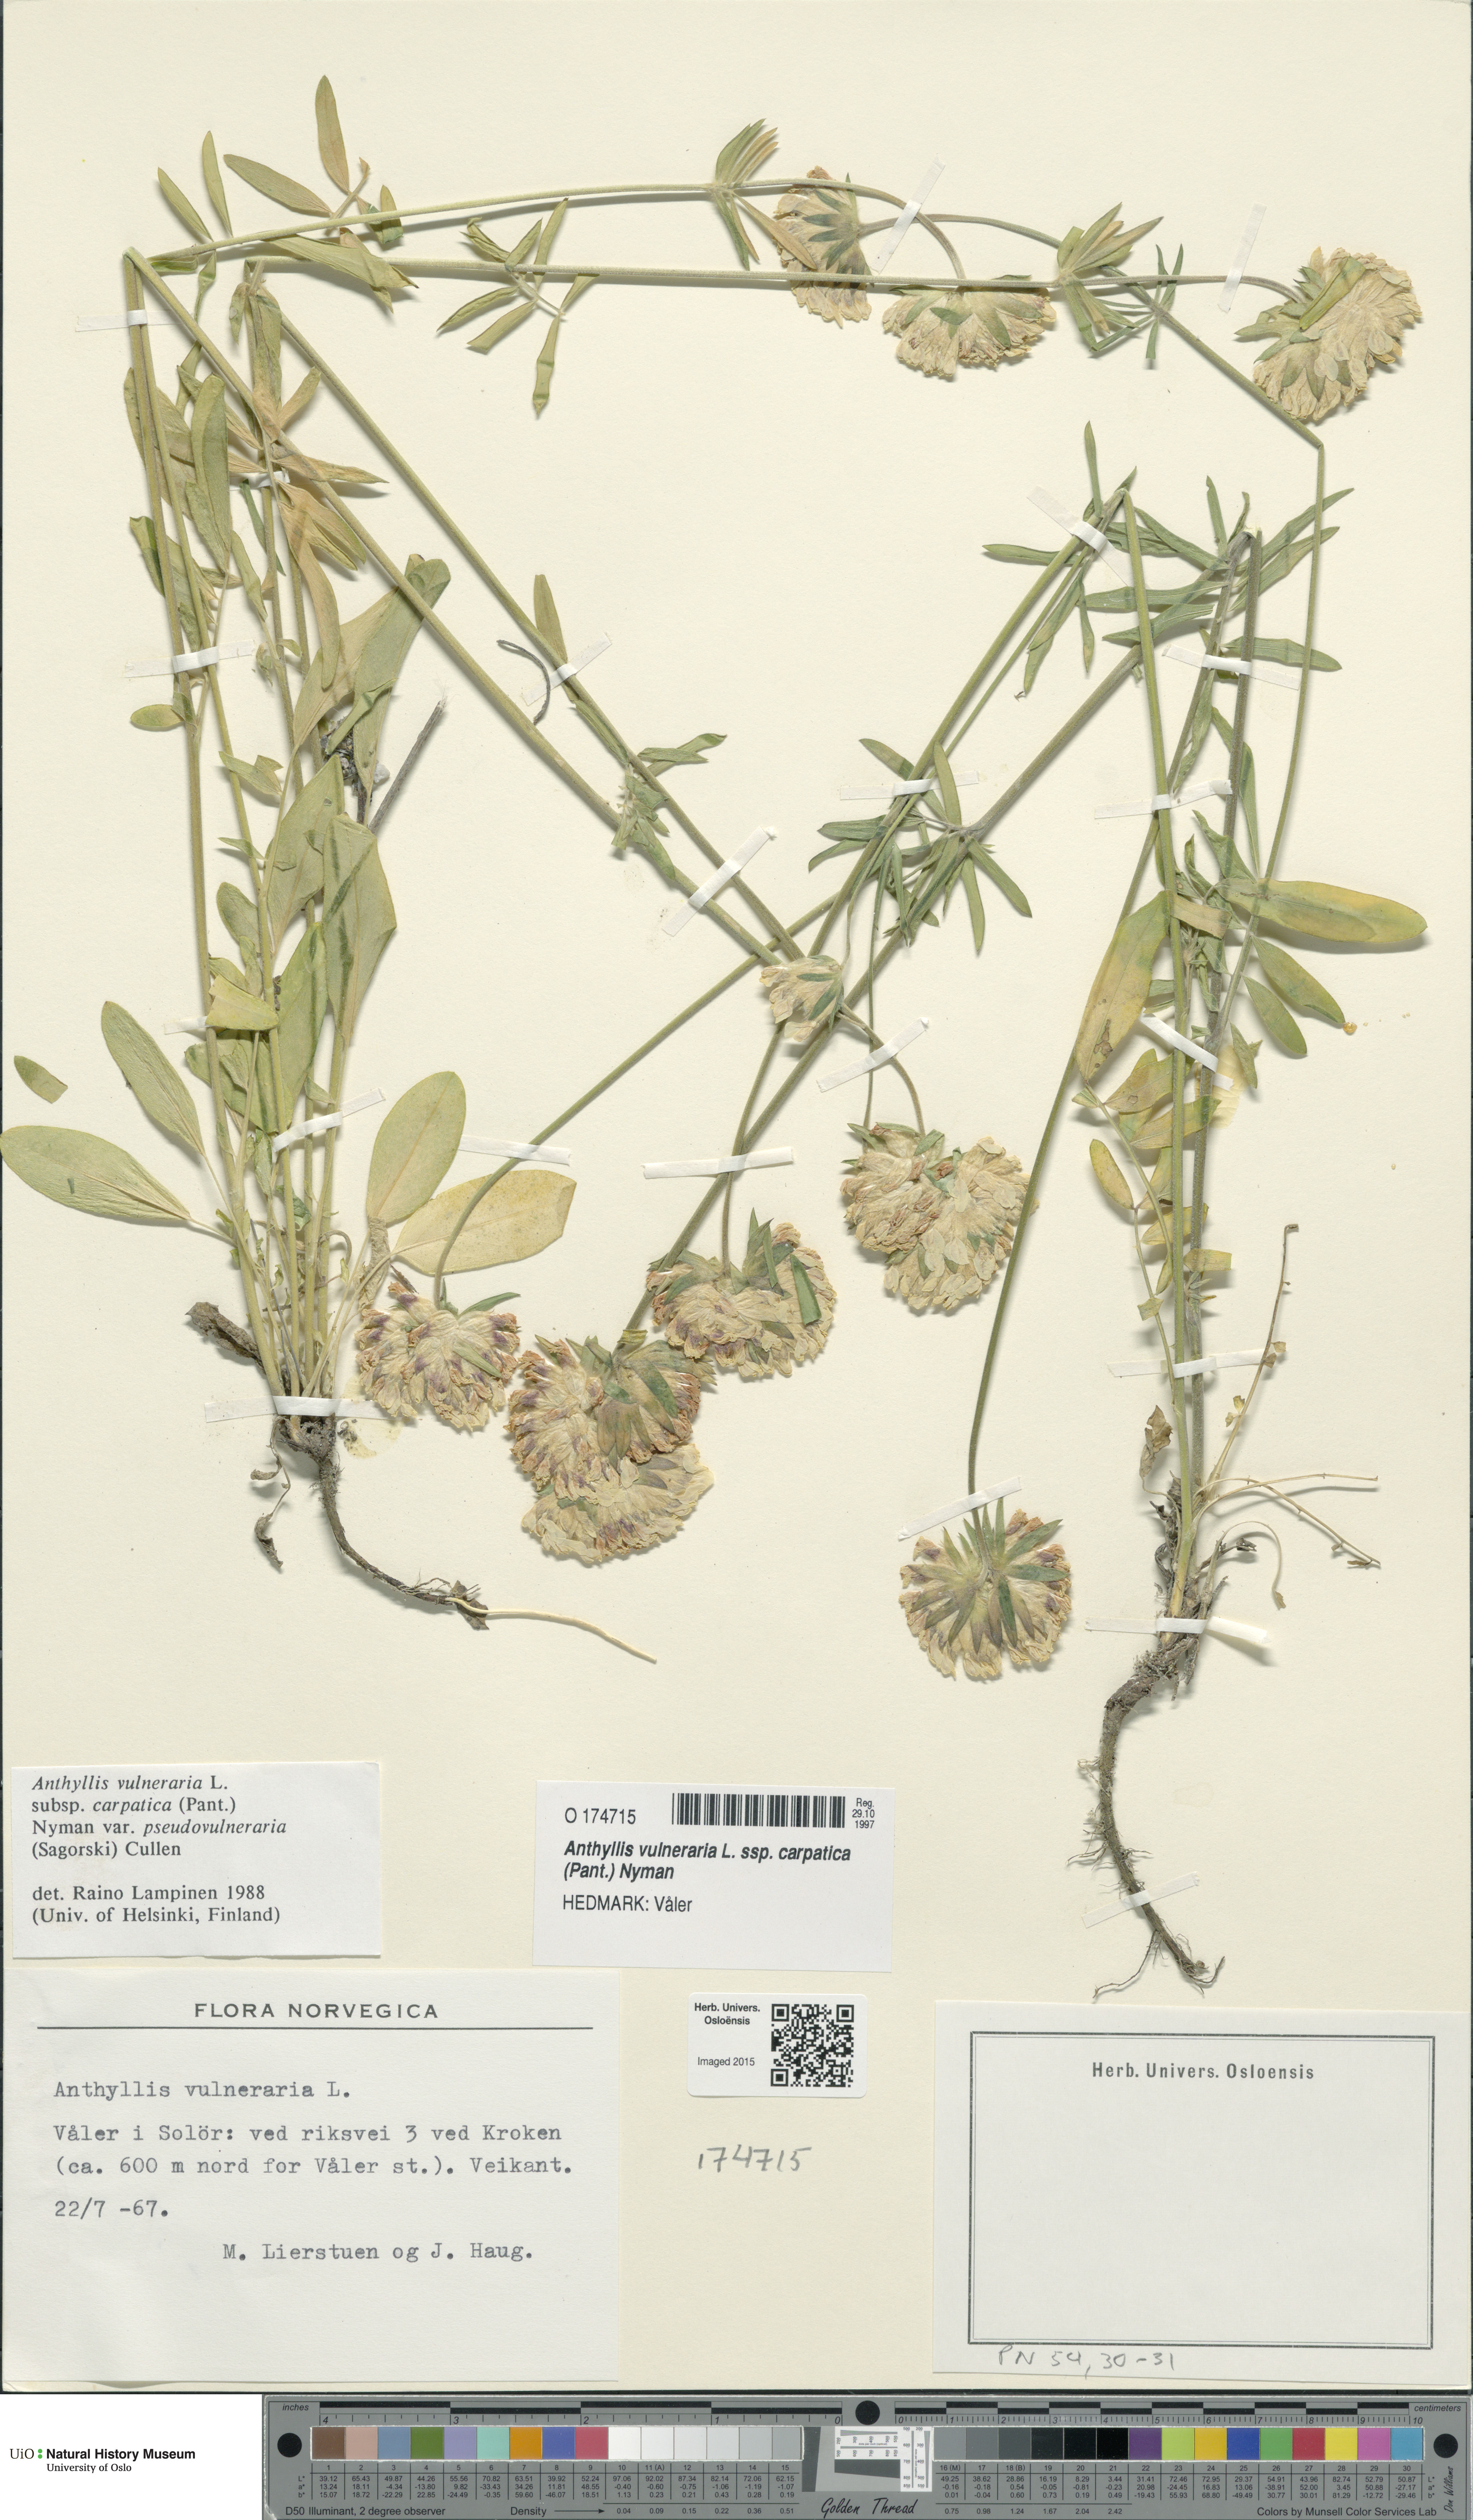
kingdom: Plantae
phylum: Tracheophyta
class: Magnoliopsida
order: Fabales
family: Fabaceae
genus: Anthyllis
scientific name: Anthyllis vulneraria
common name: Kidney vetch
